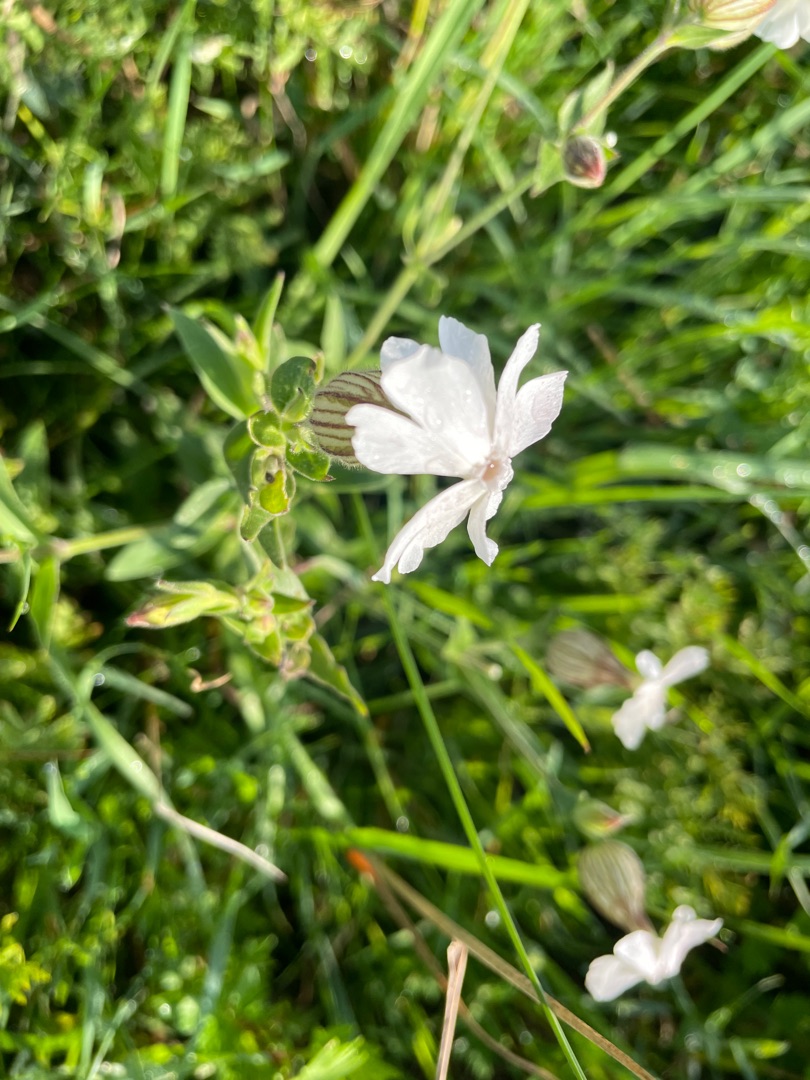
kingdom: Plantae
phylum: Tracheophyta
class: Magnoliopsida
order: Caryophyllales
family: Caryophyllaceae
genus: Silene
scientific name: Silene latifolia
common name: Aftenpragtstjerne
